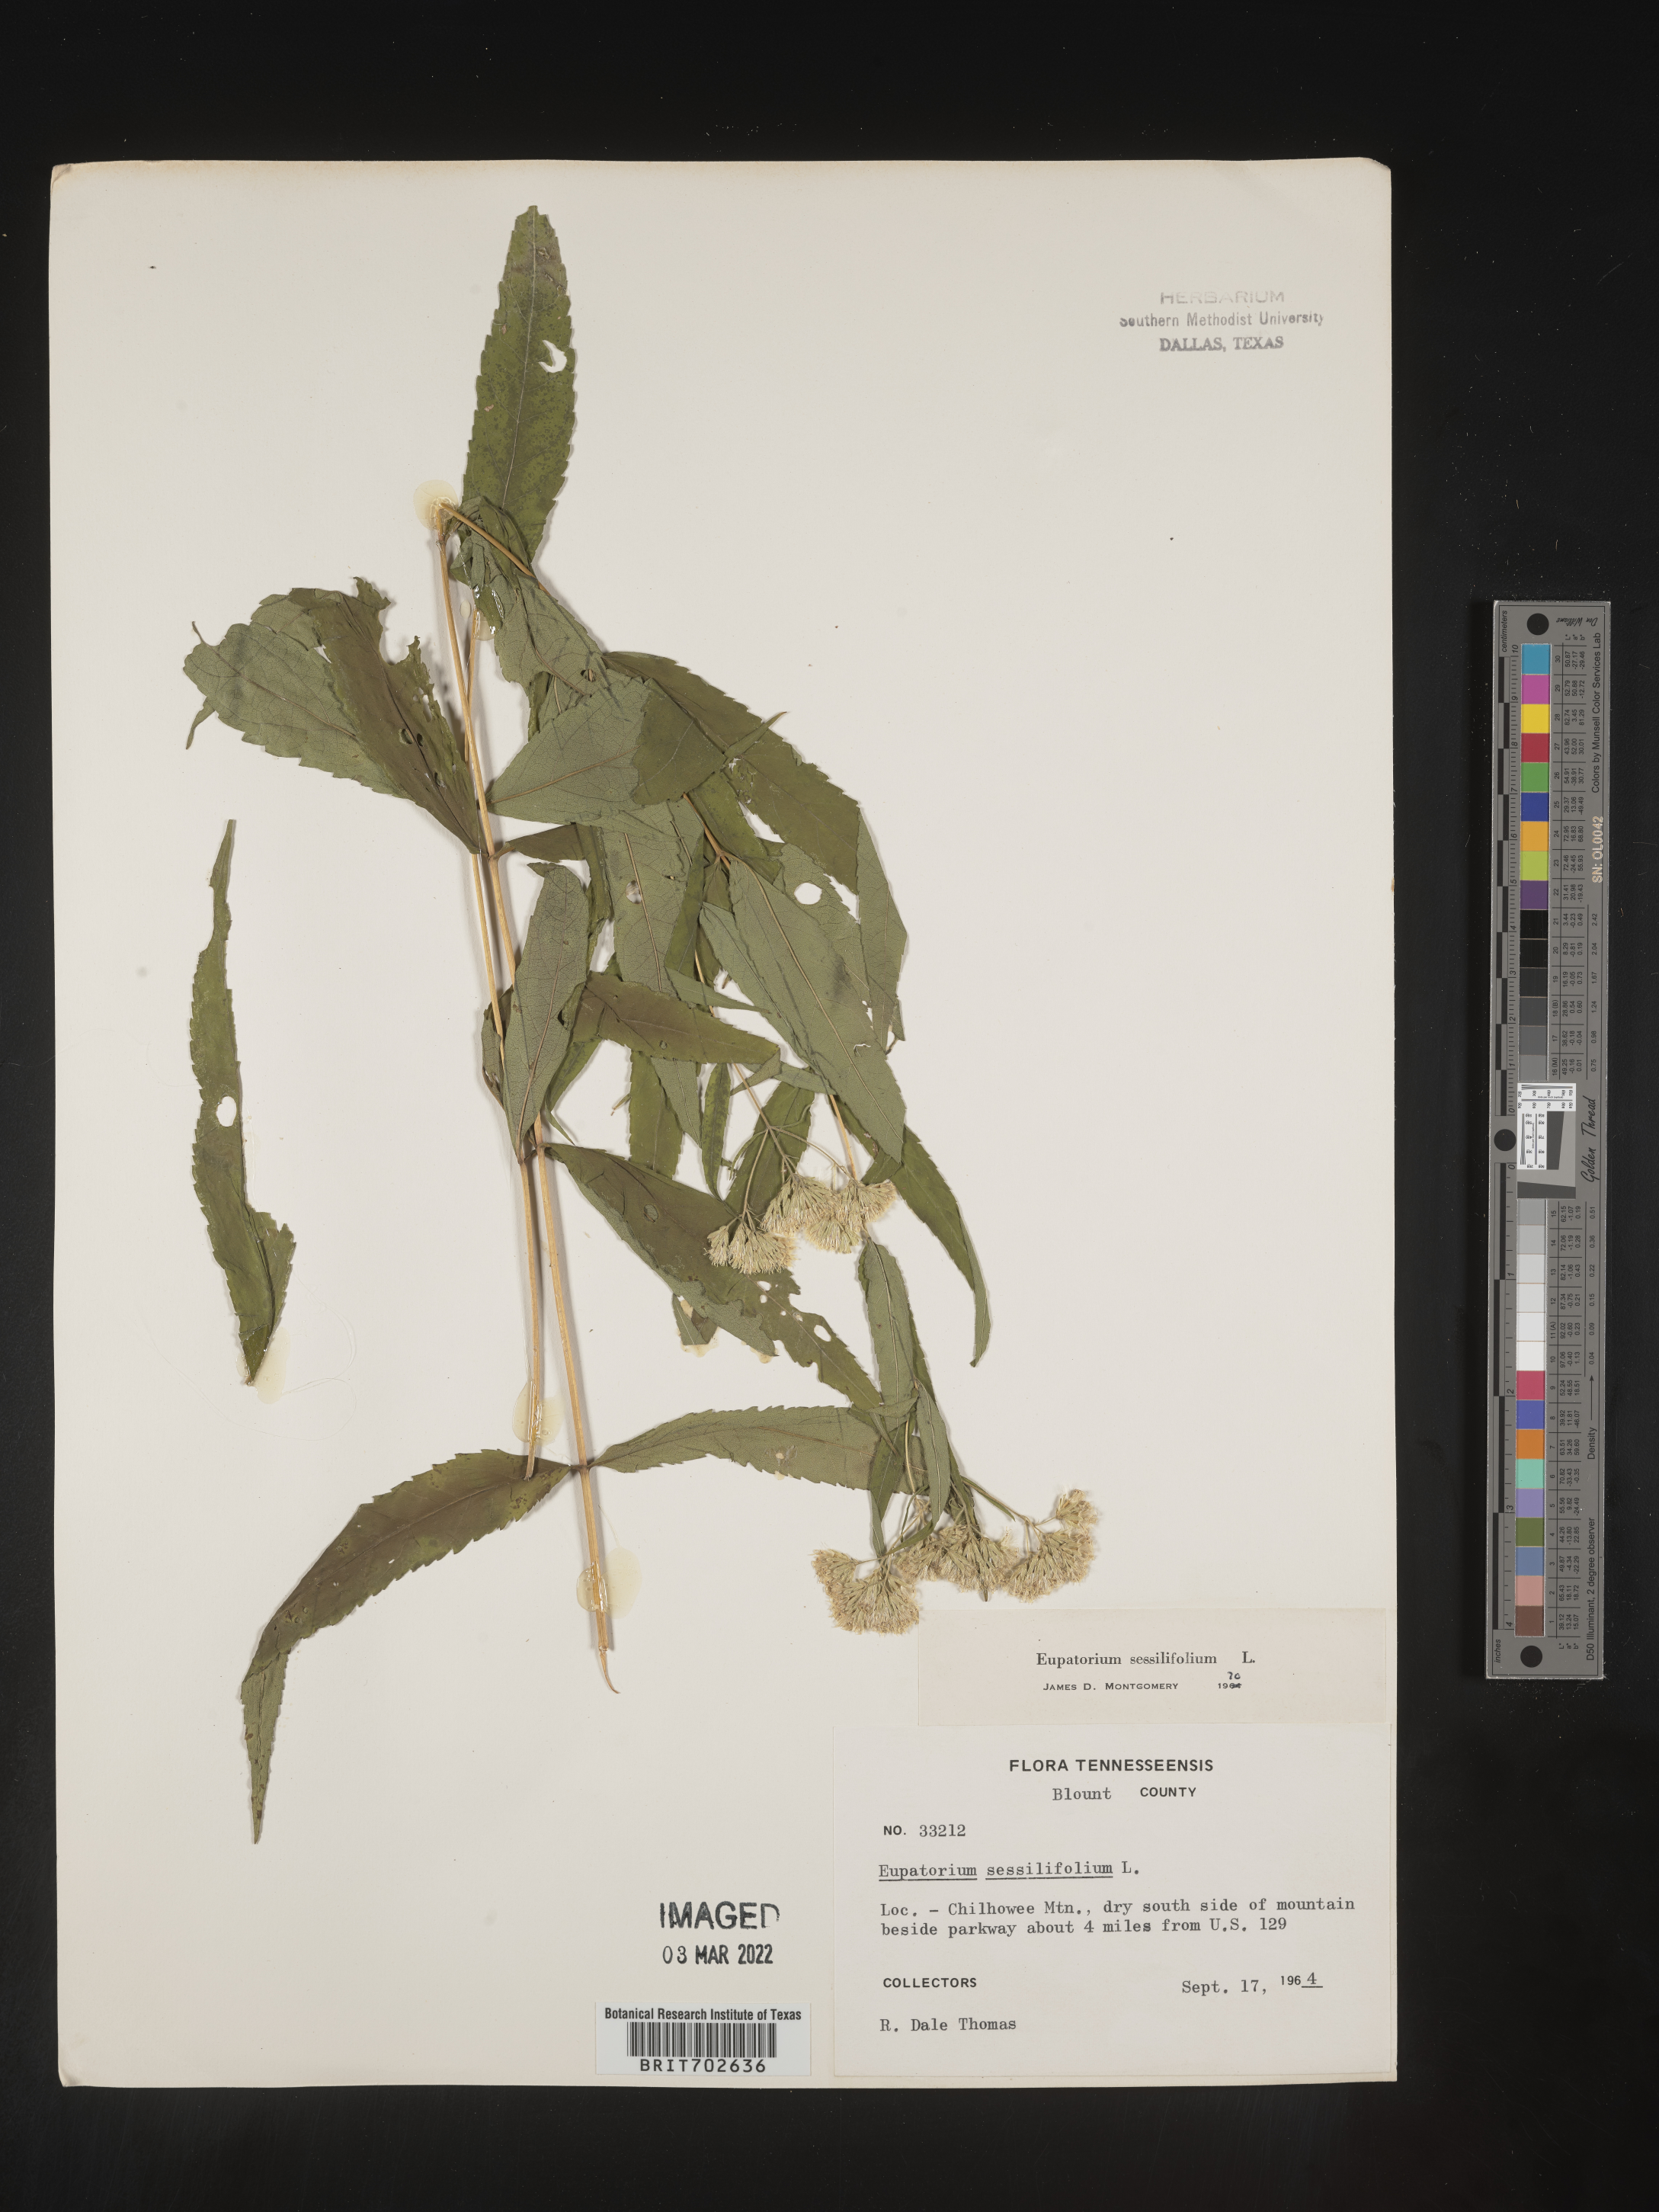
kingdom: Plantae
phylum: Tracheophyta
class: Magnoliopsida
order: Asterales
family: Asteraceae
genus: Eupatorium
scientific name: Eupatorium sessilifolium
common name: Upland boneset
